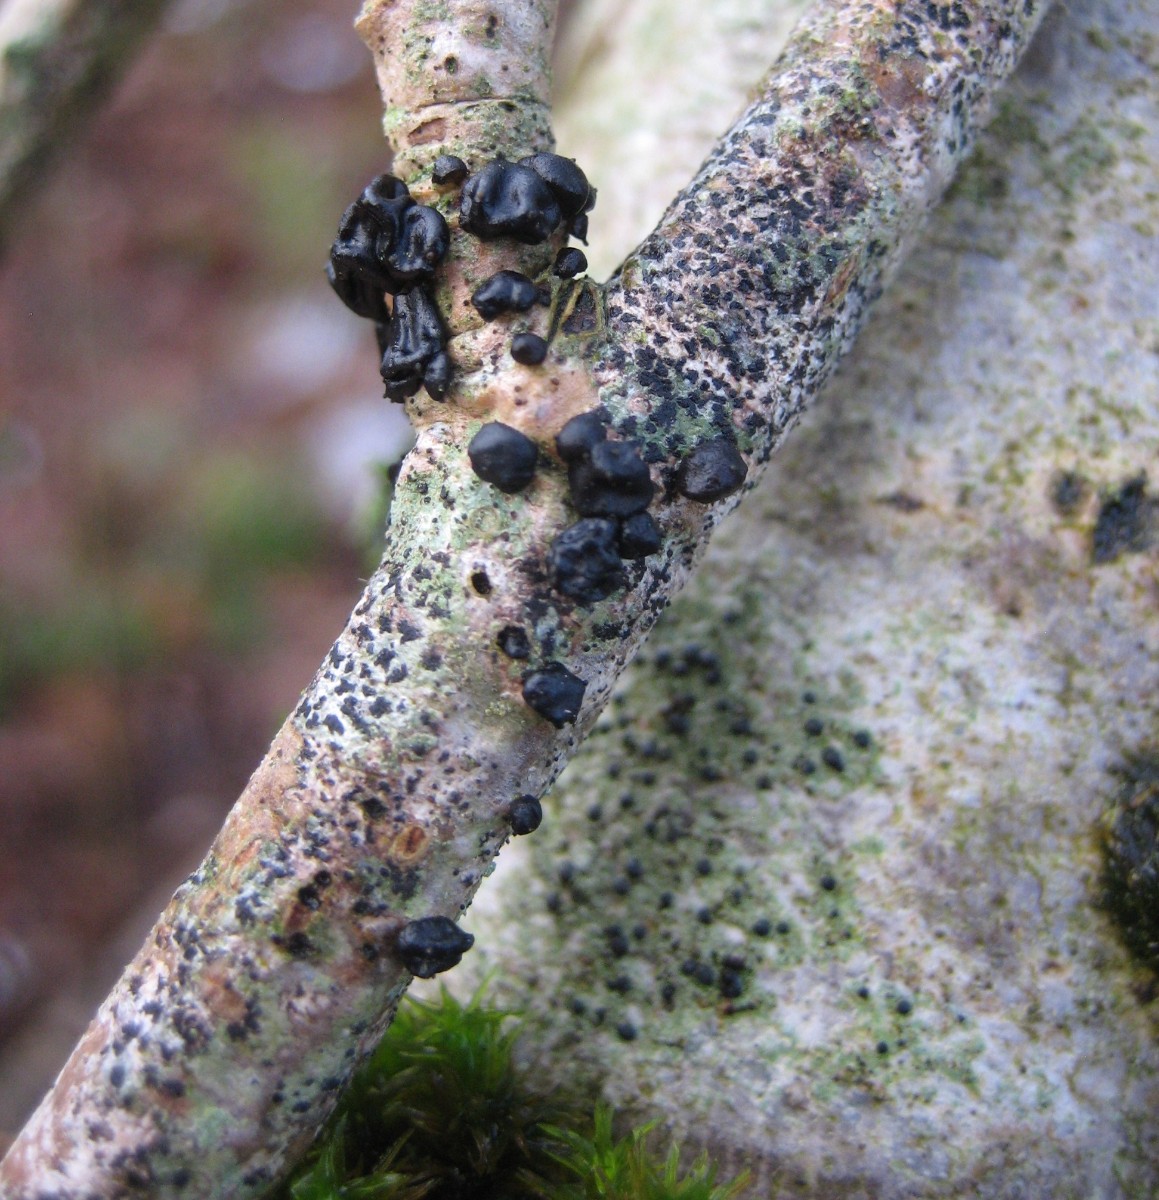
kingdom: Fungi
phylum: Basidiomycota
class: Agaricomycetes
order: Auriculariales
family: Auriculariaceae
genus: Exidia
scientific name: Exidia nigricans
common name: almindelig bævretop
